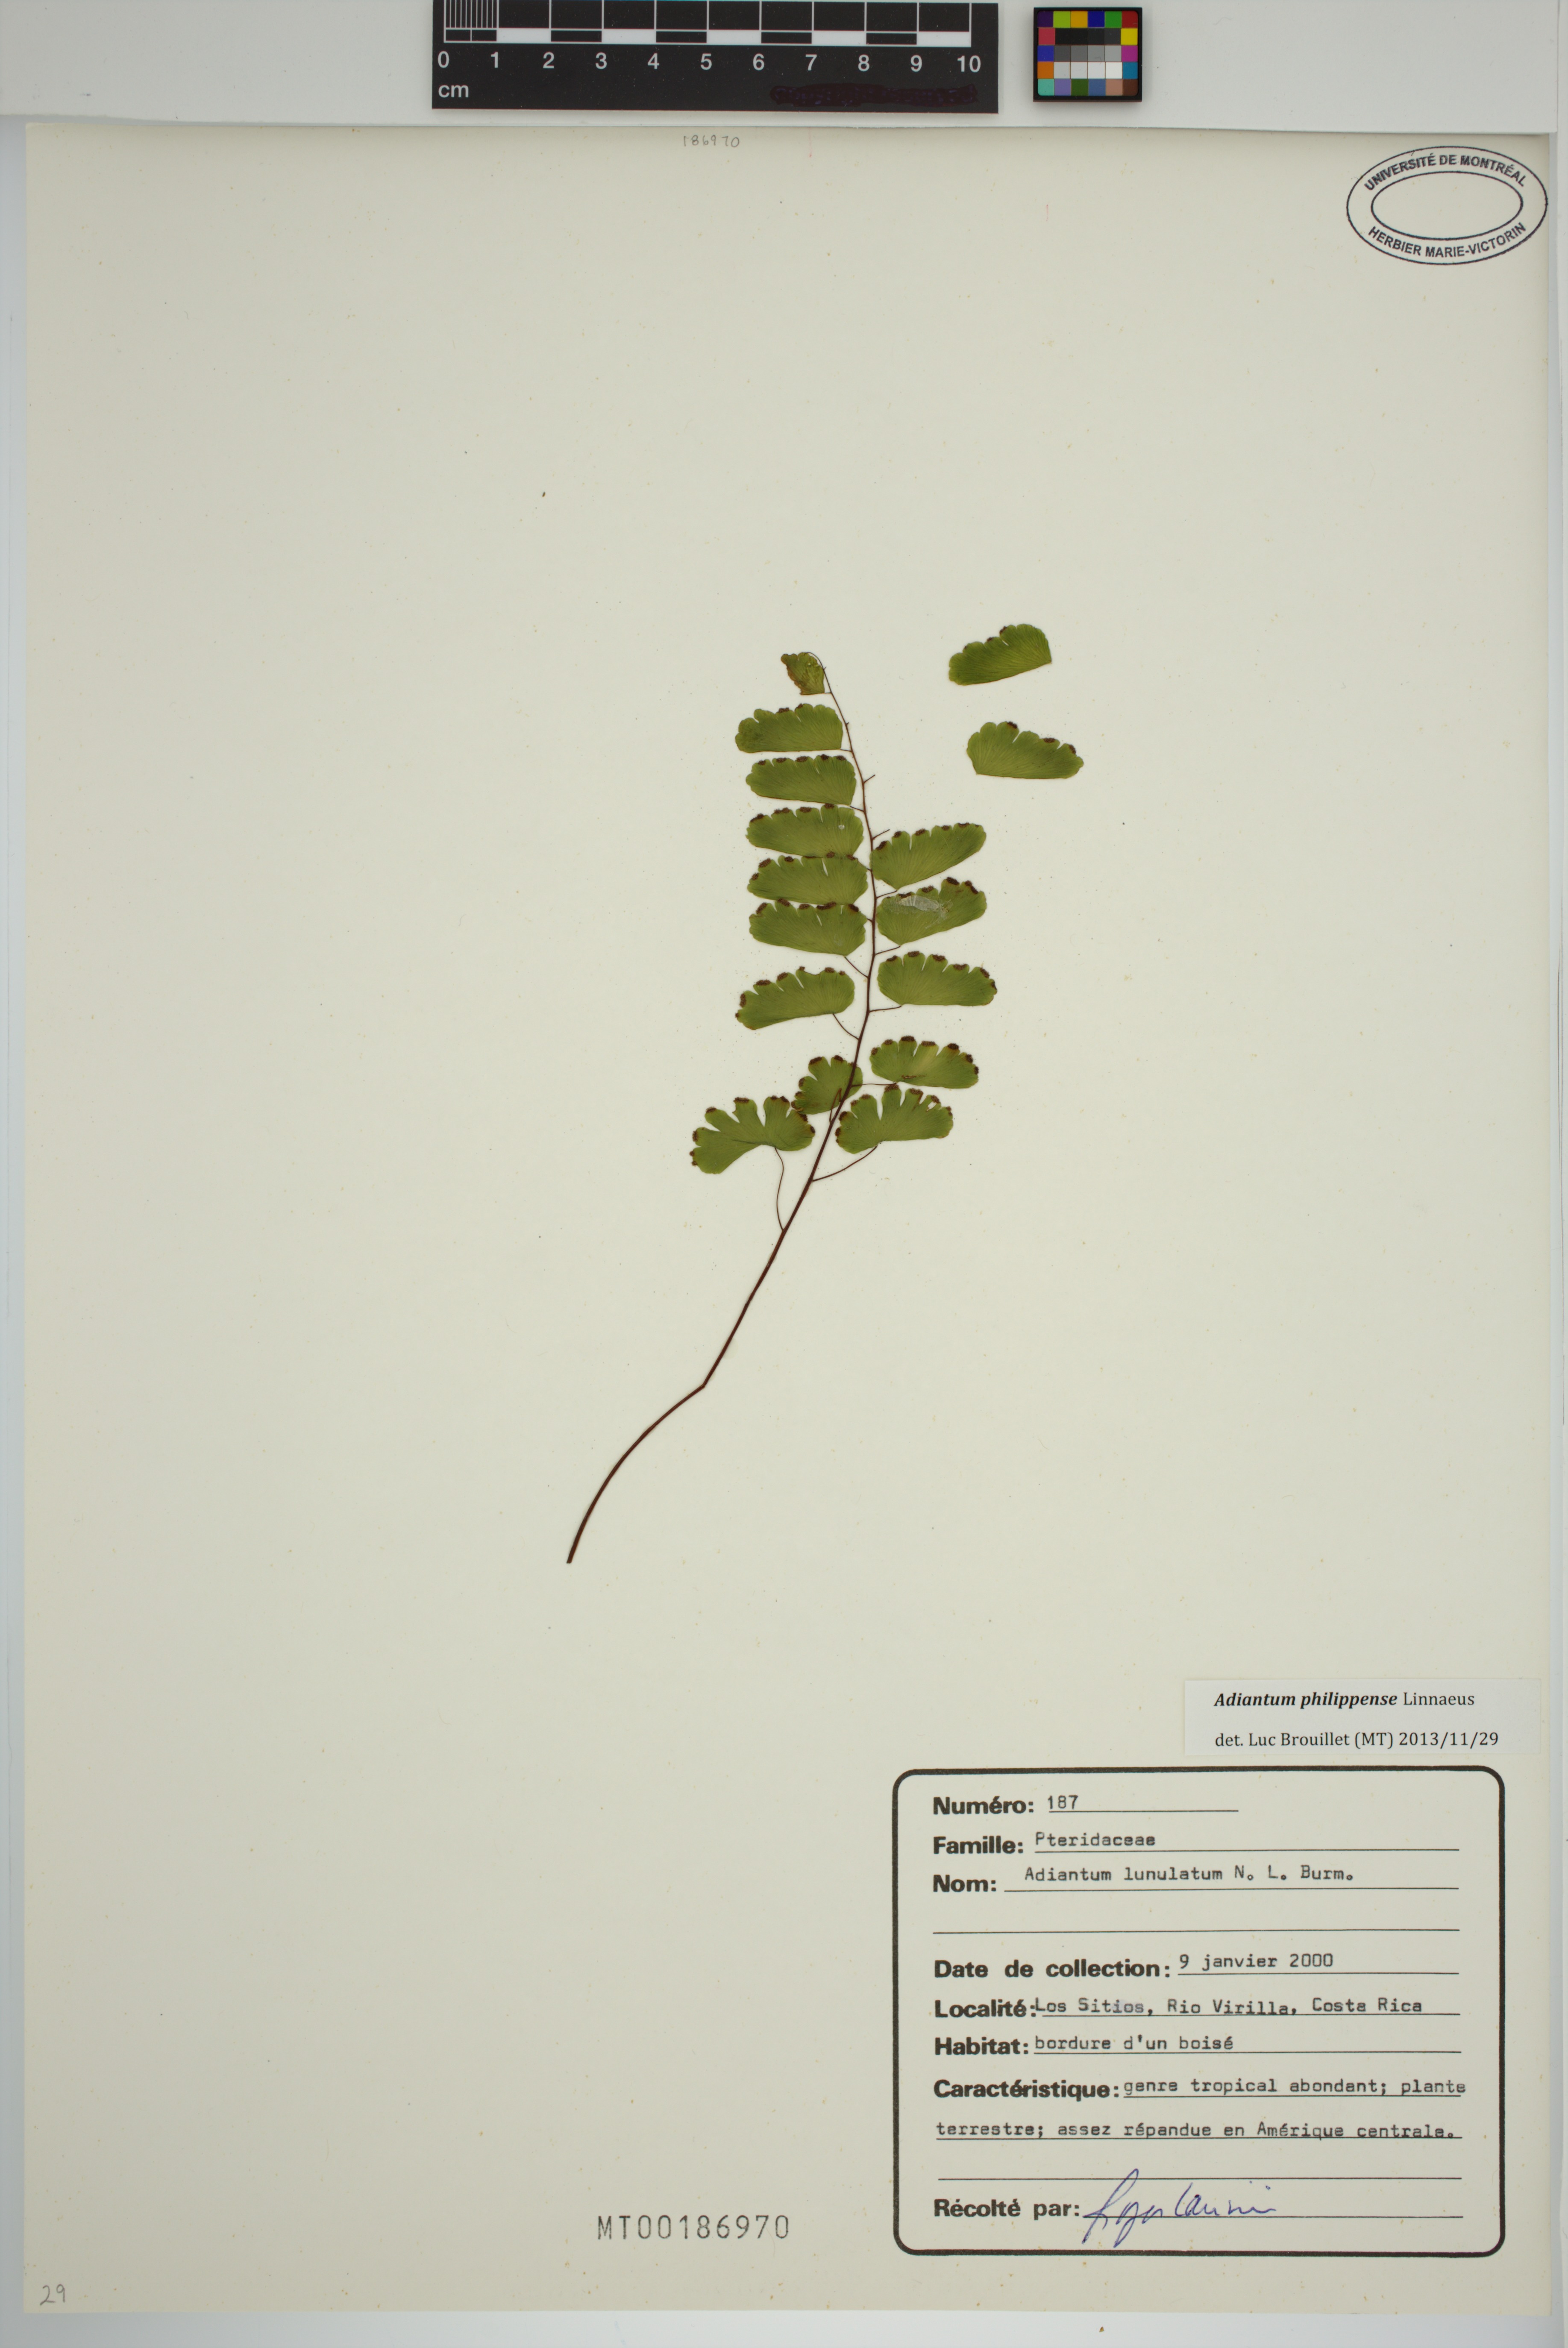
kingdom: Plantae
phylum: Tracheophyta
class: Polypodiopsida
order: Polypodiales
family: Pteridaceae
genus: Adiantum
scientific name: Adiantum philippense
